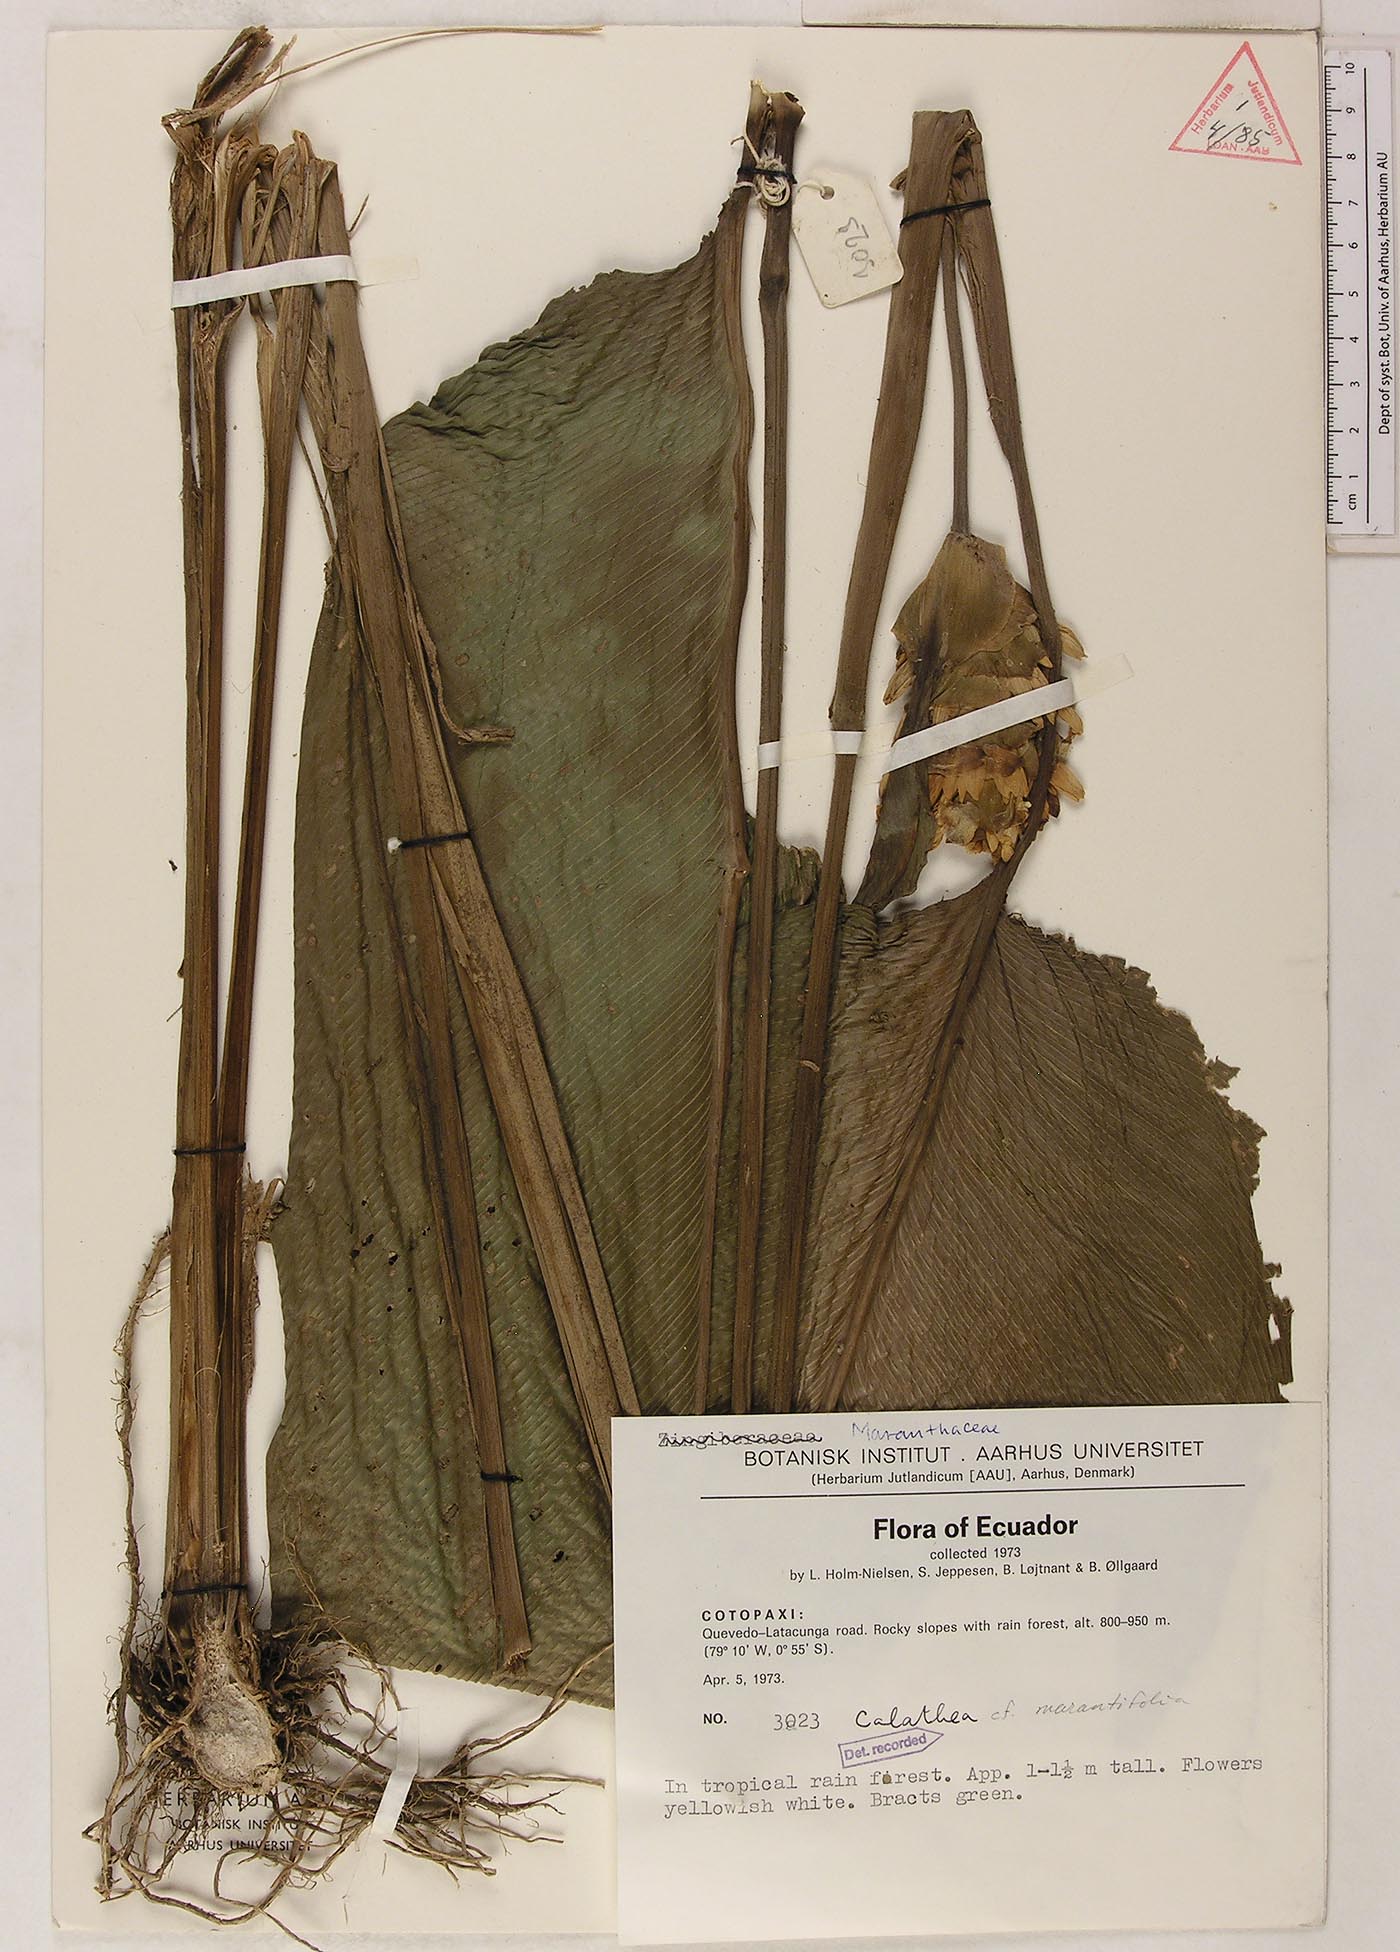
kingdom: Plantae
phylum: Tracheophyta
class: Liliopsida
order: Zingiberales
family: Marantaceae
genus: Goeppertia
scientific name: Goeppertia marantifolia
